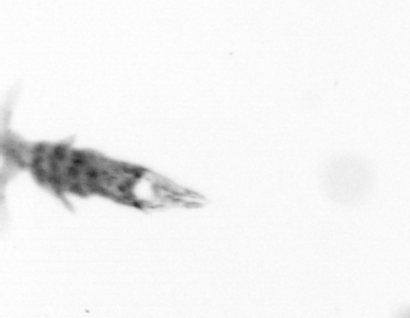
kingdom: Animalia
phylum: Arthropoda
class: Copepoda
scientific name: Copepoda
